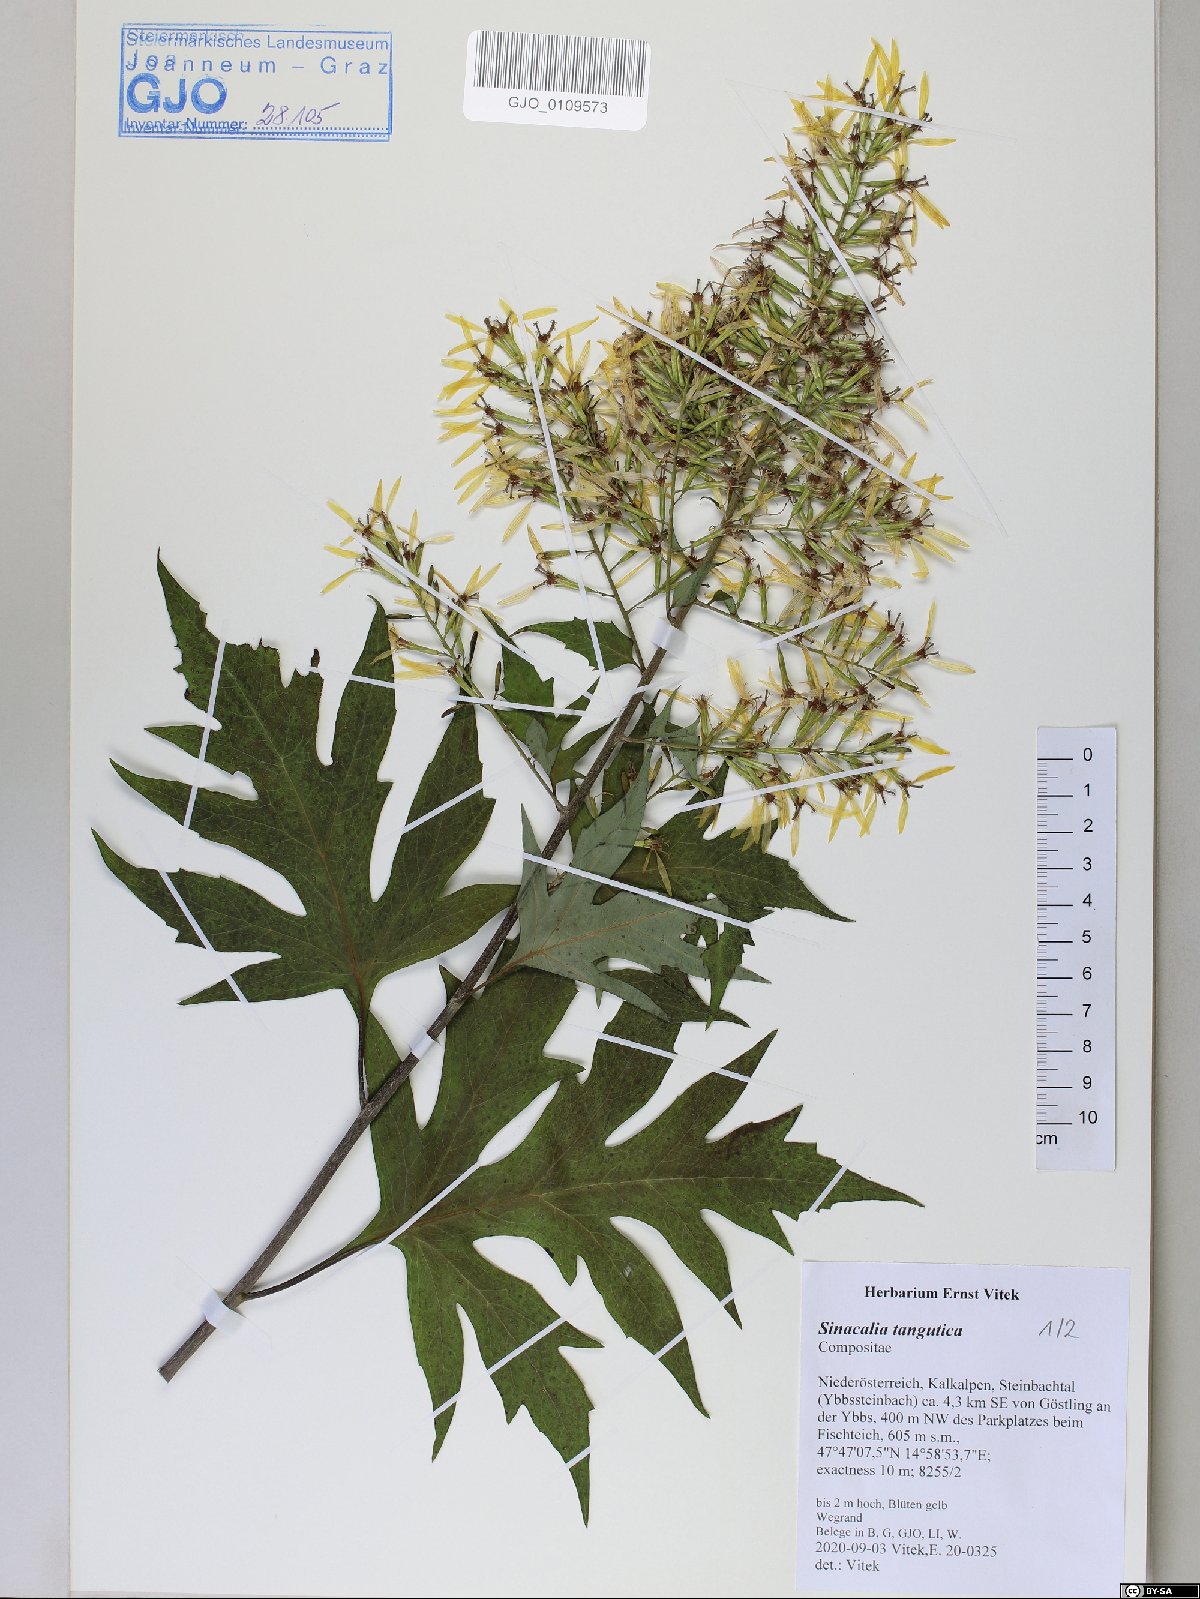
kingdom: Plantae
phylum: Tracheophyta
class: Magnoliopsida
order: Asterales
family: Asteraceae
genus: Sinacalia
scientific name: Sinacalia tangutica
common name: Chinese ragwort
